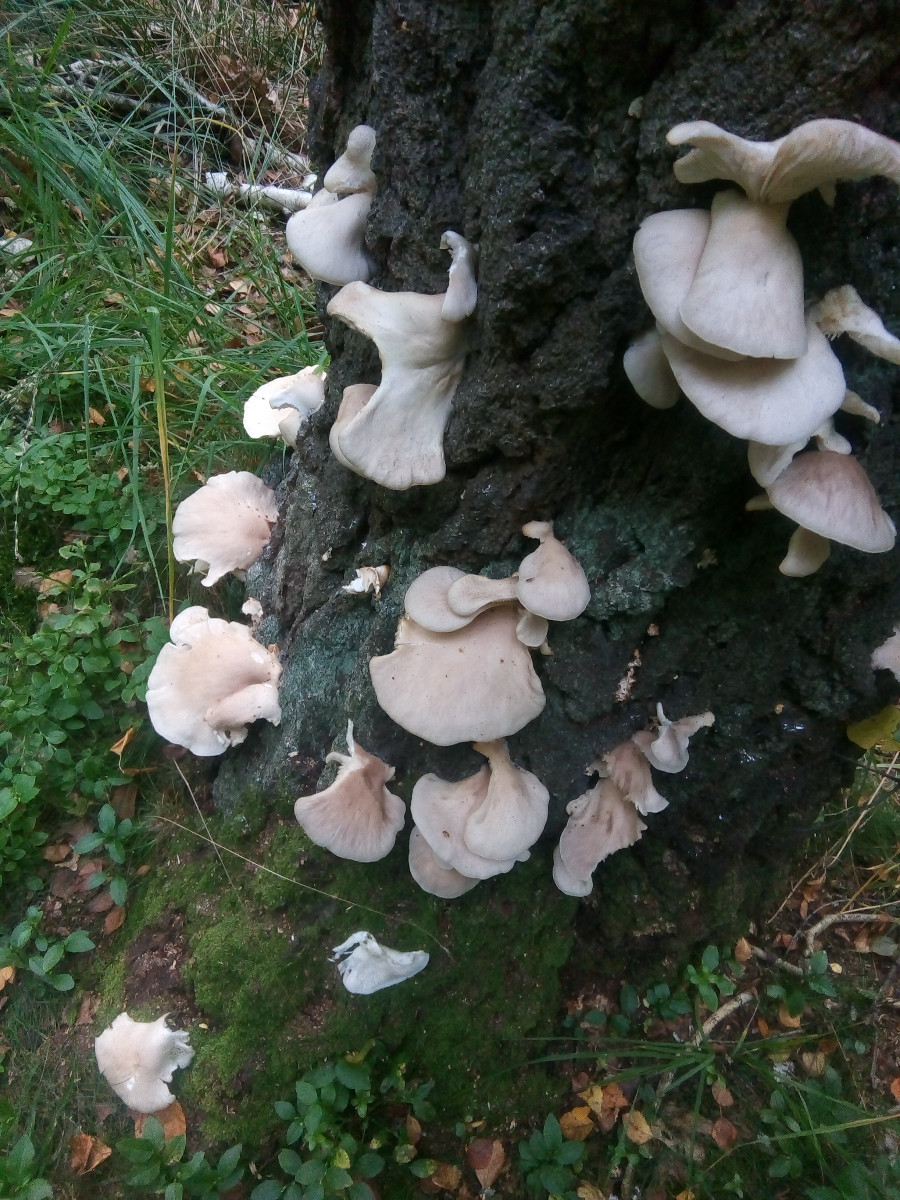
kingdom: Fungi
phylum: Basidiomycota
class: Agaricomycetes
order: Agaricales
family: Pleurotaceae
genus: Pleurotus
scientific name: Pleurotus pulmonarius
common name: sommer-østershat
